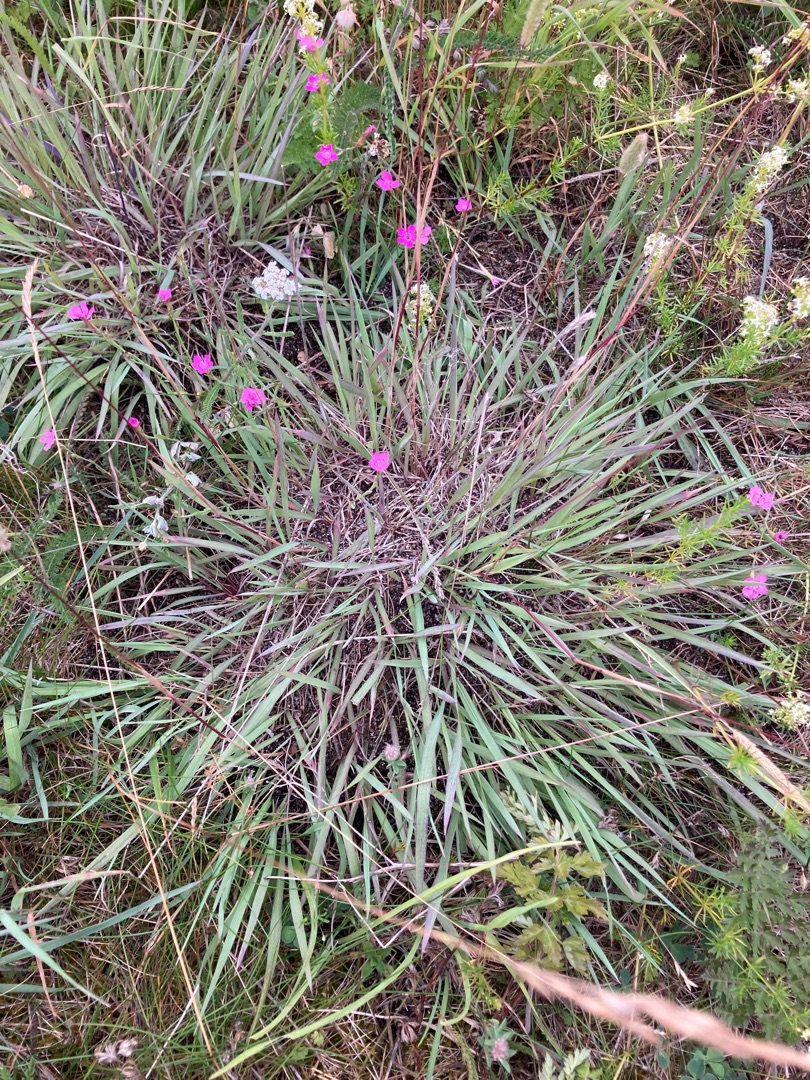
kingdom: Plantae
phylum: Tracheophyta
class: Liliopsida
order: Poales
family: Poaceae
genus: Phleum
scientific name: Phleum phleoides
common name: Glat rottehale
